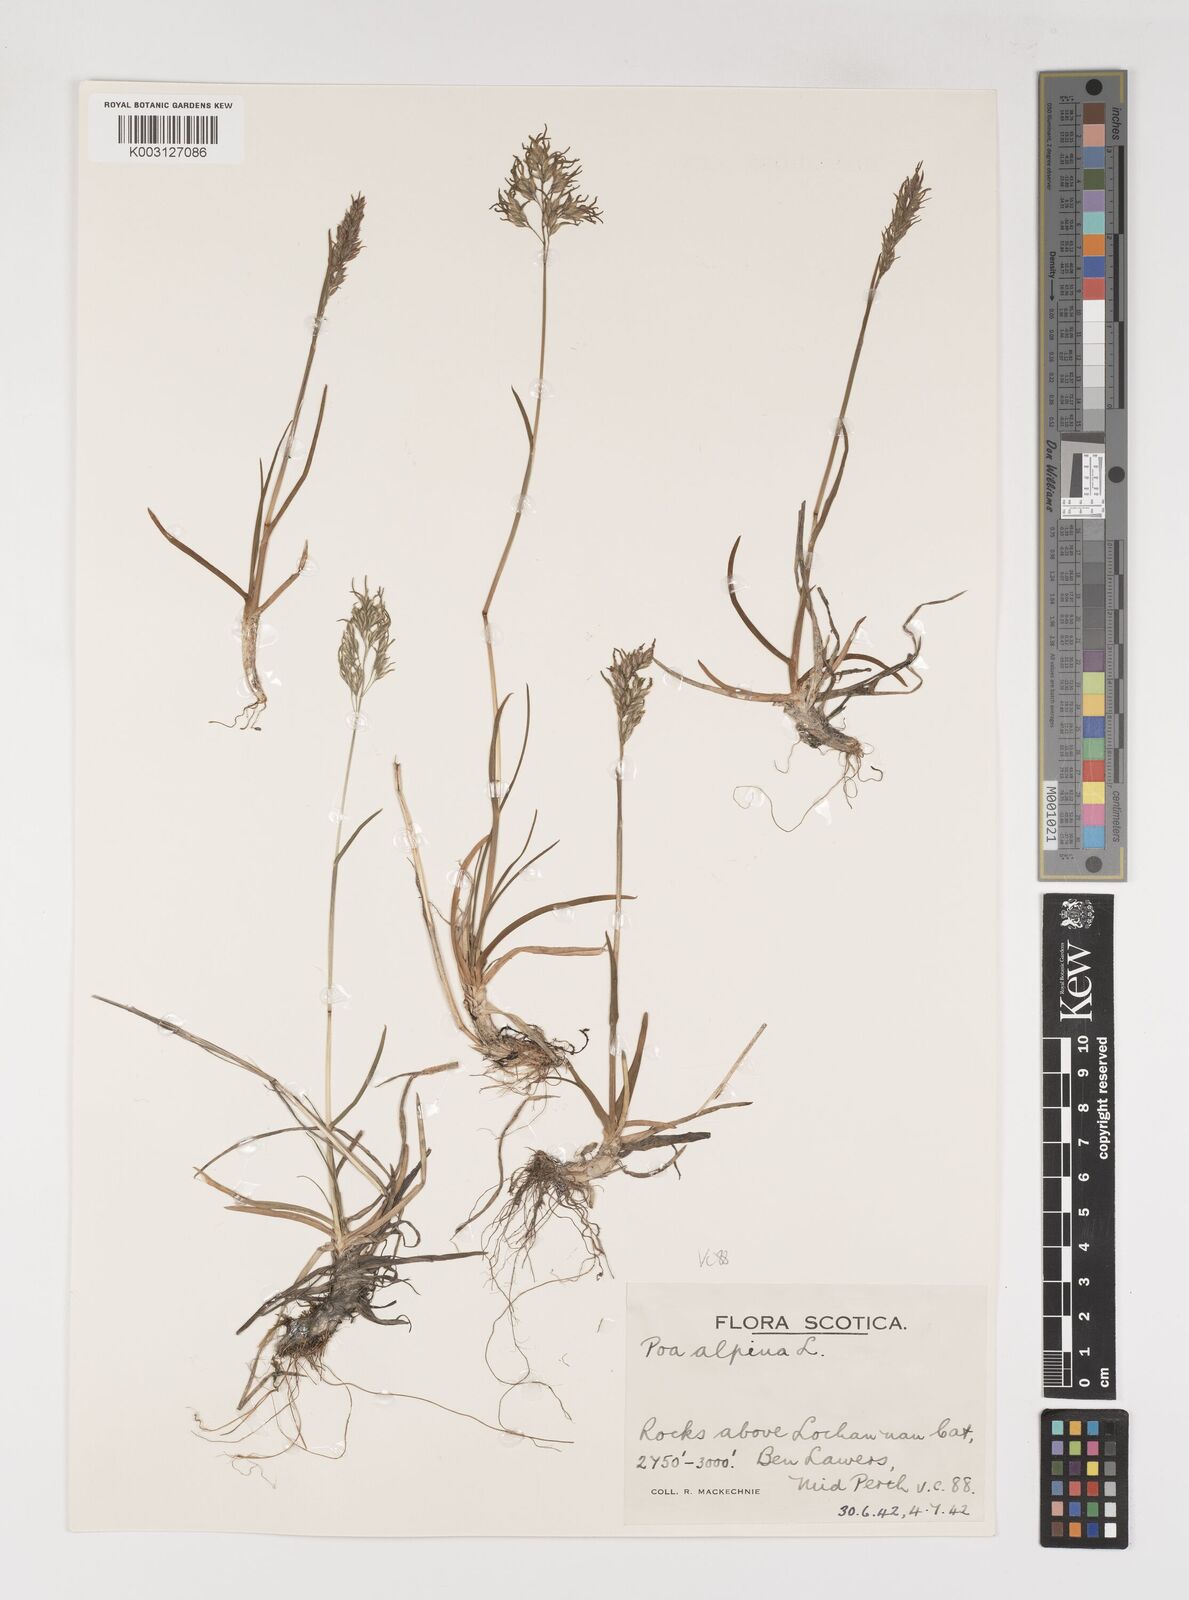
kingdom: Plantae
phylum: Tracheophyta
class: Liliopsida
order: Poales
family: Poaceae
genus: Poa
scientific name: Poa alpina
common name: Alpine bluegrass
